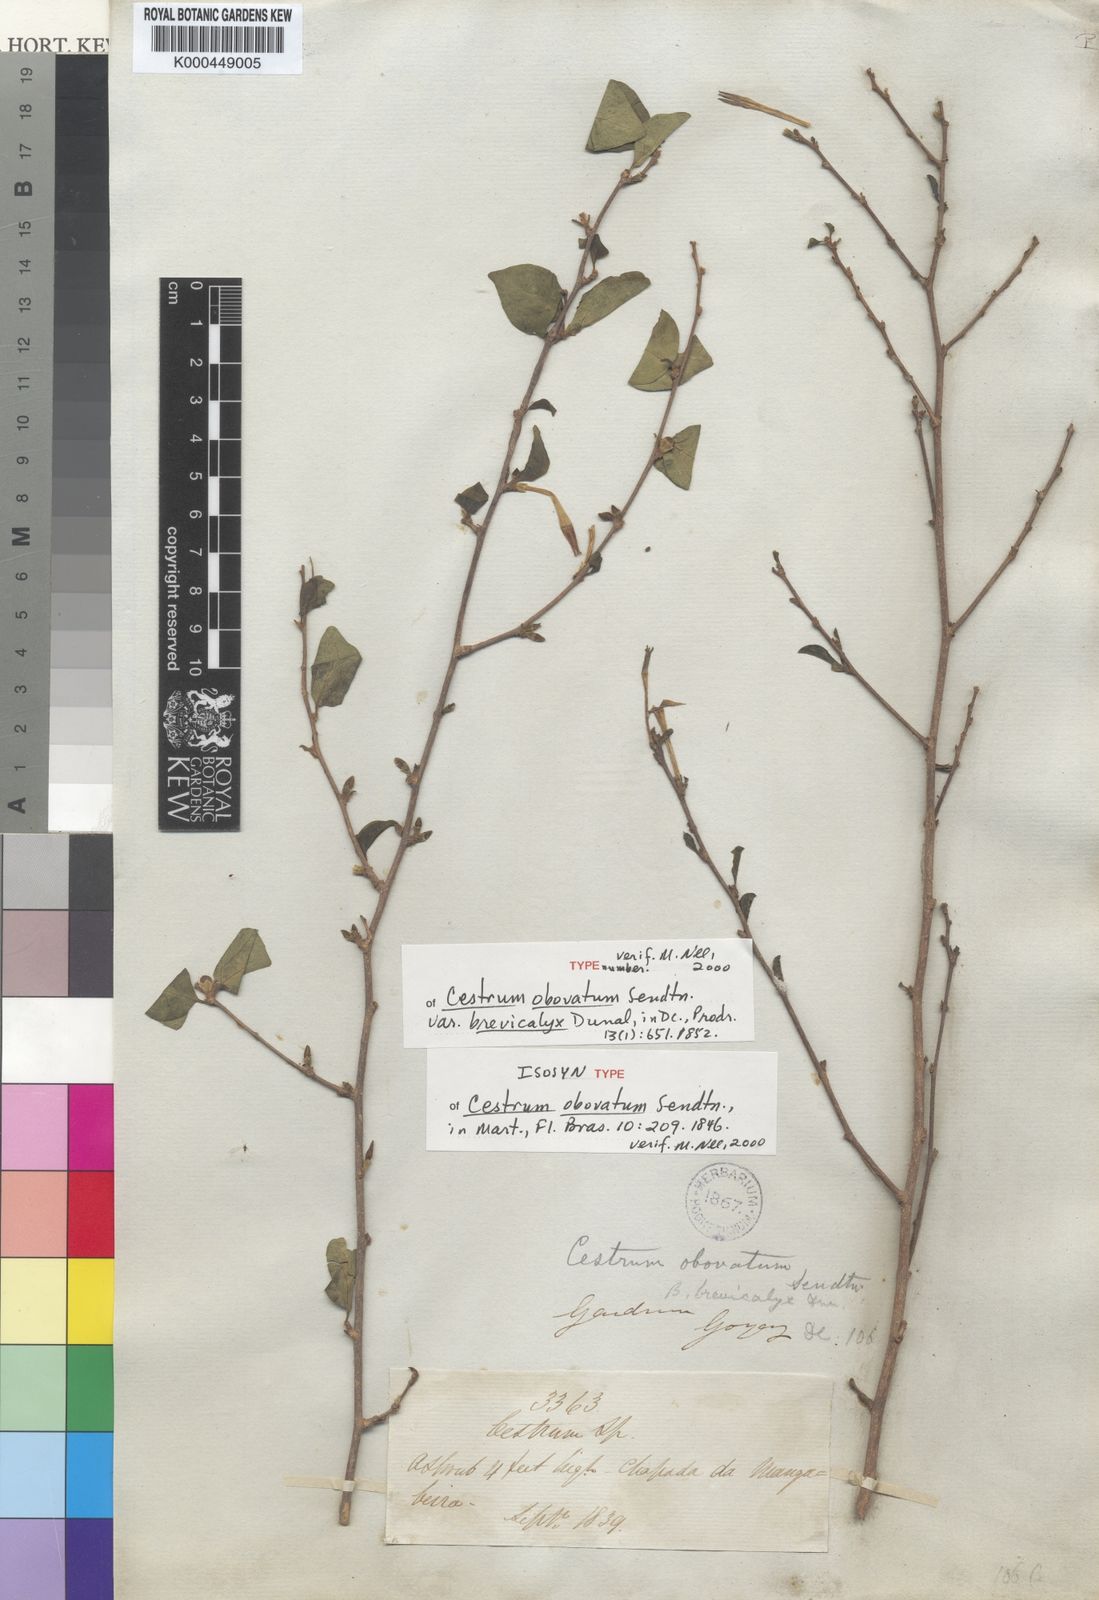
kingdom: Plantae
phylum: Tracheophyta
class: Magnoliopsida
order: Solanales
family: Solanaceae
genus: Cestrum
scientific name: Cestrum obovatum
